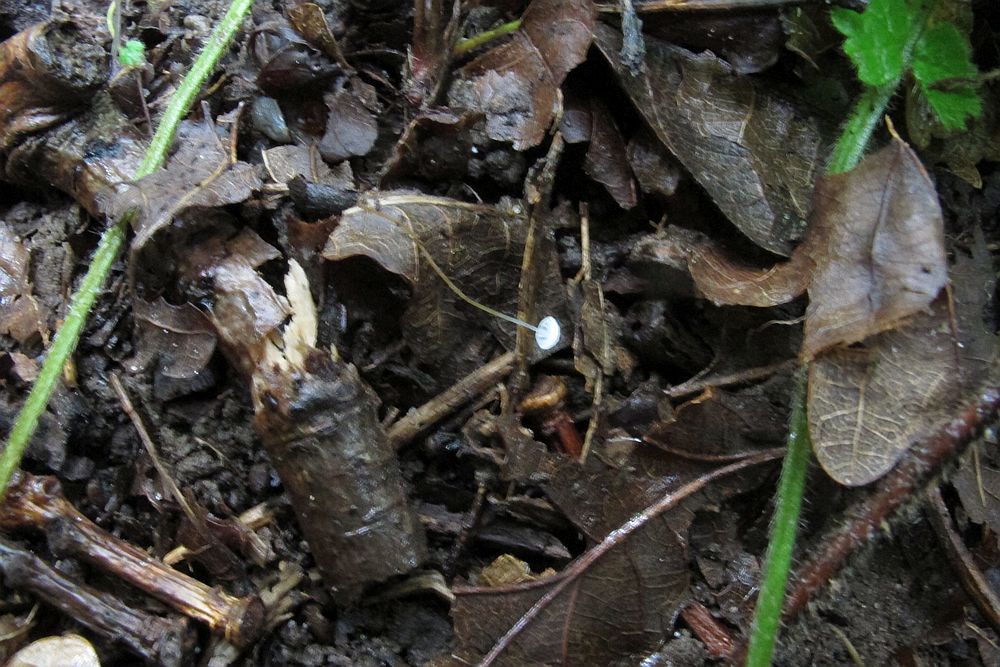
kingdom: Fungi
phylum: Basidiomycota
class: Agaricomycetes
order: Agaricales
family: Physalacriaceae
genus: Rhizomarasmius
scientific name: Rhizomarasmius setosus
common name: bøgeblads-bruskhat
